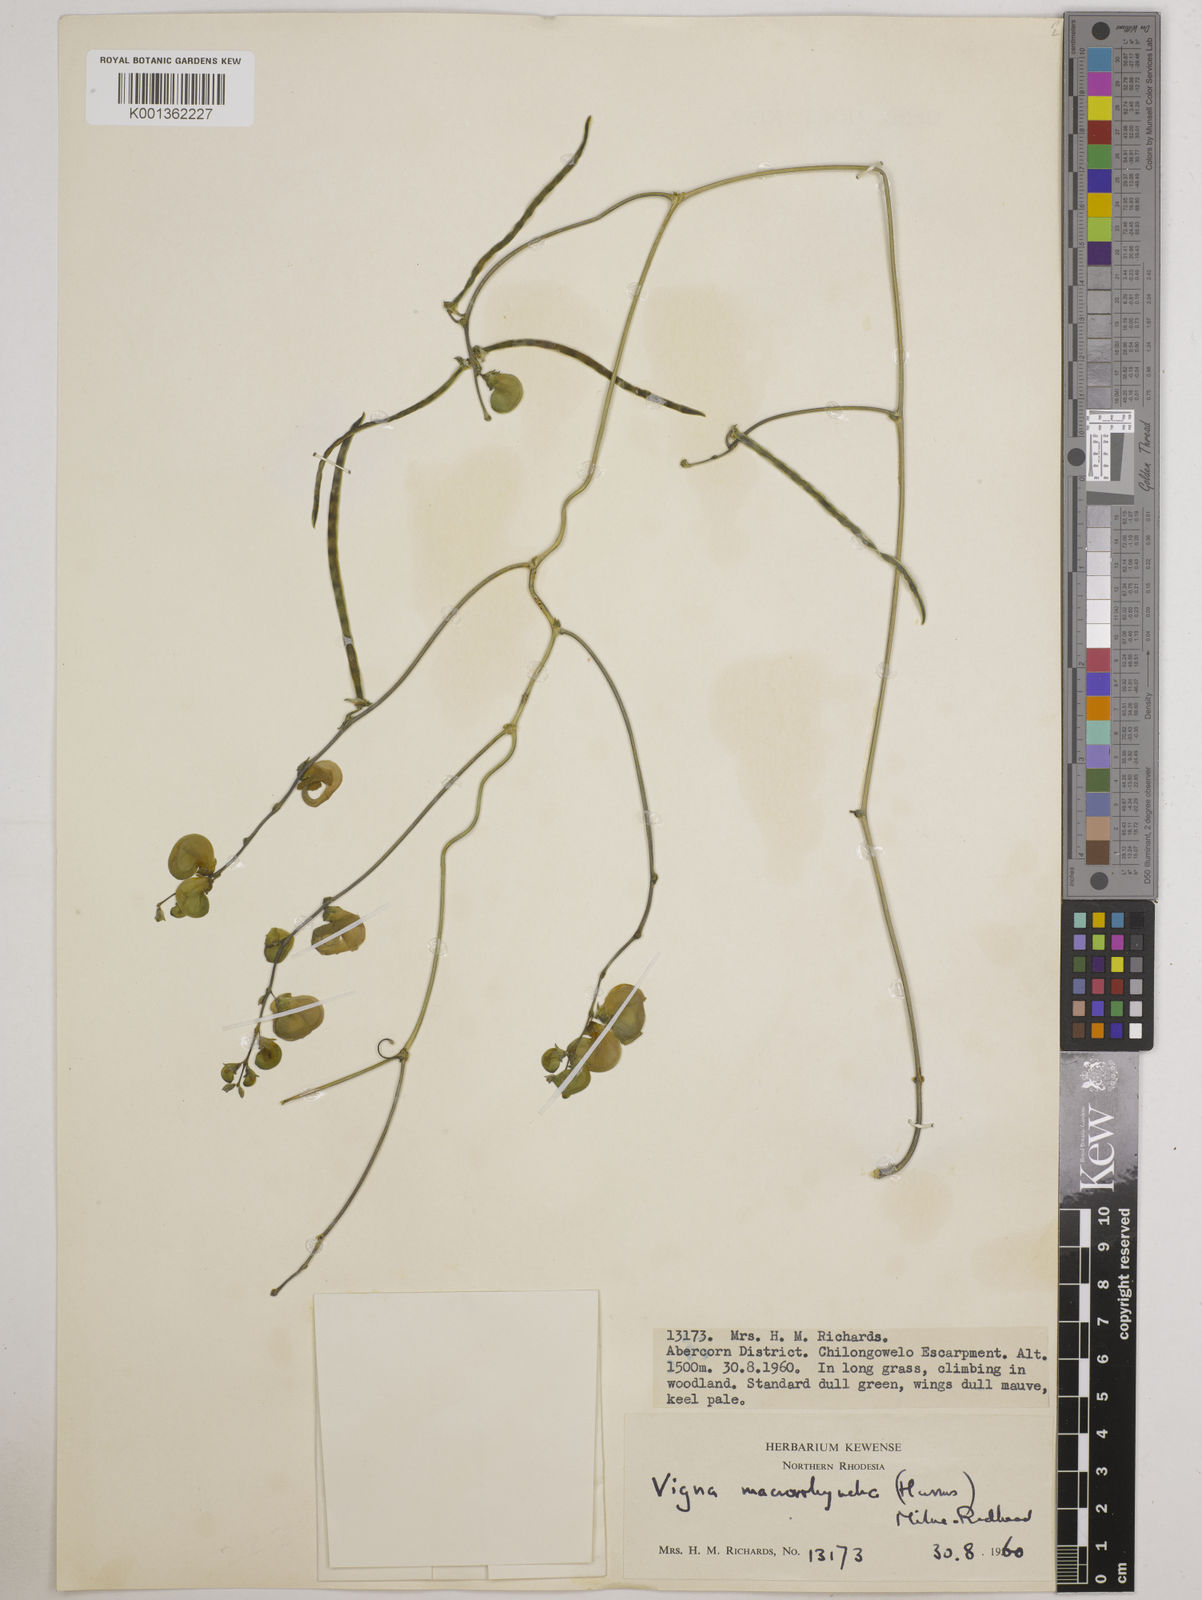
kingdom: Plantae
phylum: Tracheophyta
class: Magnoliopsida
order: Fabales
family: Fabaceae
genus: Wajira
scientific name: Wajira grahamiana
